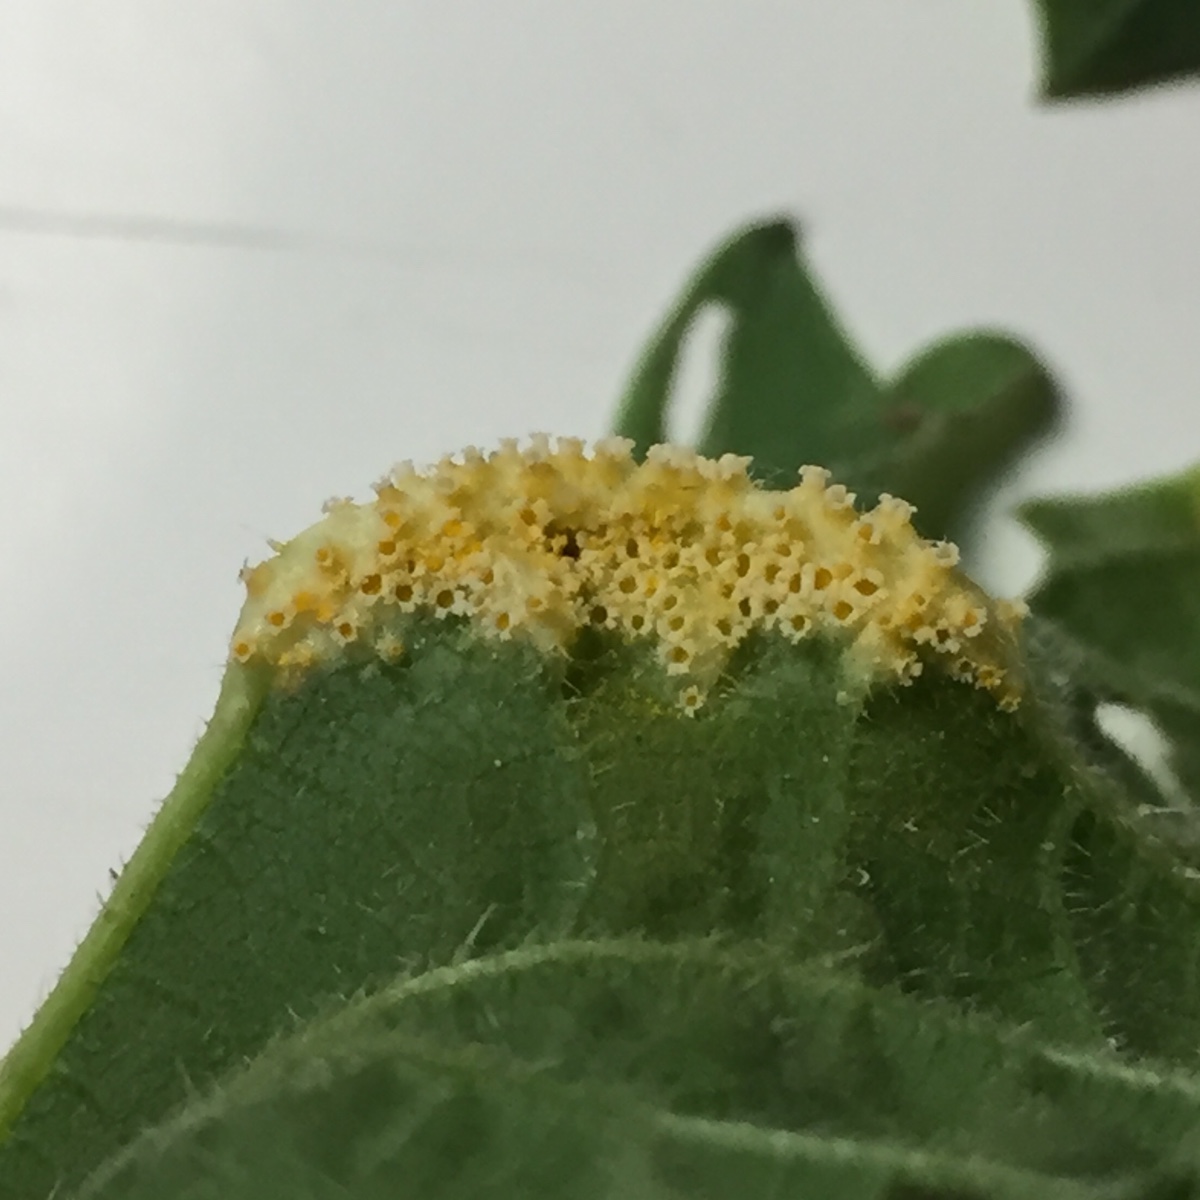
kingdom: Fungi
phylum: Basidiomycota
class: Pucciniomycetes
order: Pucciniales
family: Pucciniaceae
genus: Puccinia
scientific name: Puccinia urticata
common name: nældegalle-tvecellerust
